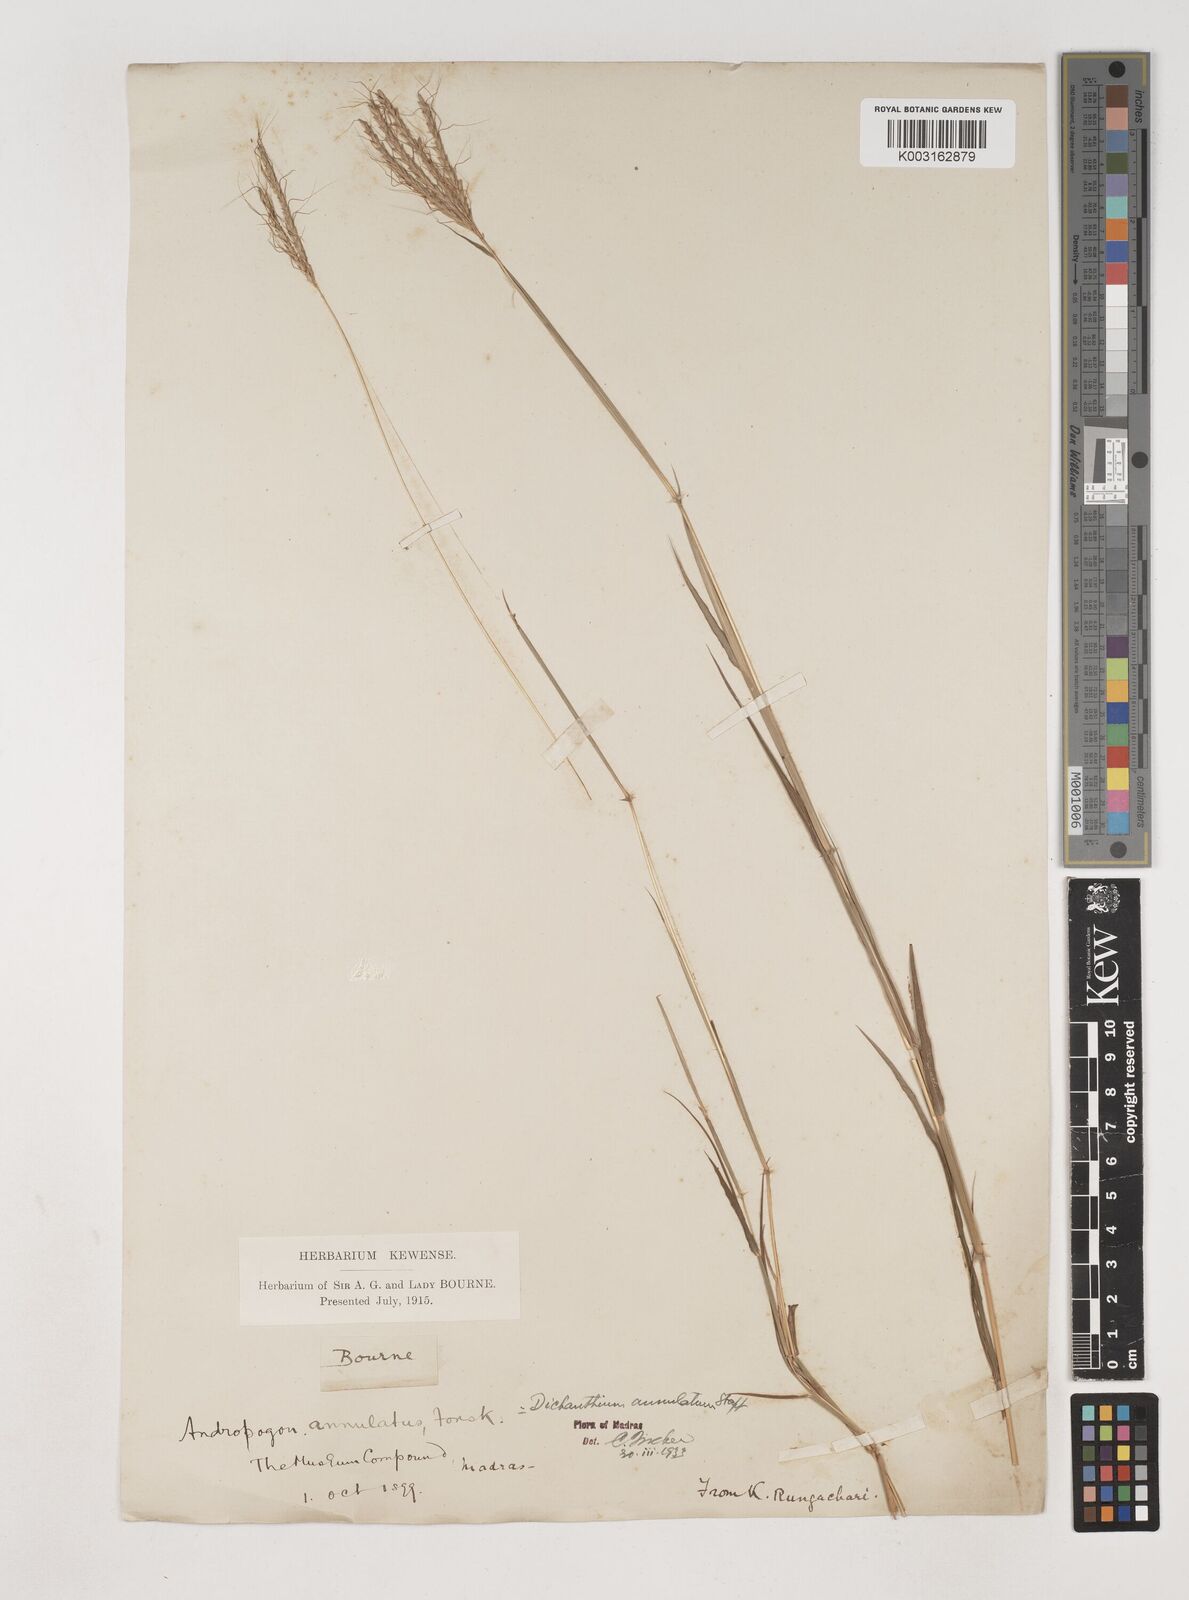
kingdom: Plantae
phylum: Tracheophyta
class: Liliopsida
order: Poales
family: Poaceae
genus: Dichanthium
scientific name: Dichanthium annulatum
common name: Kleberg's bluestem
